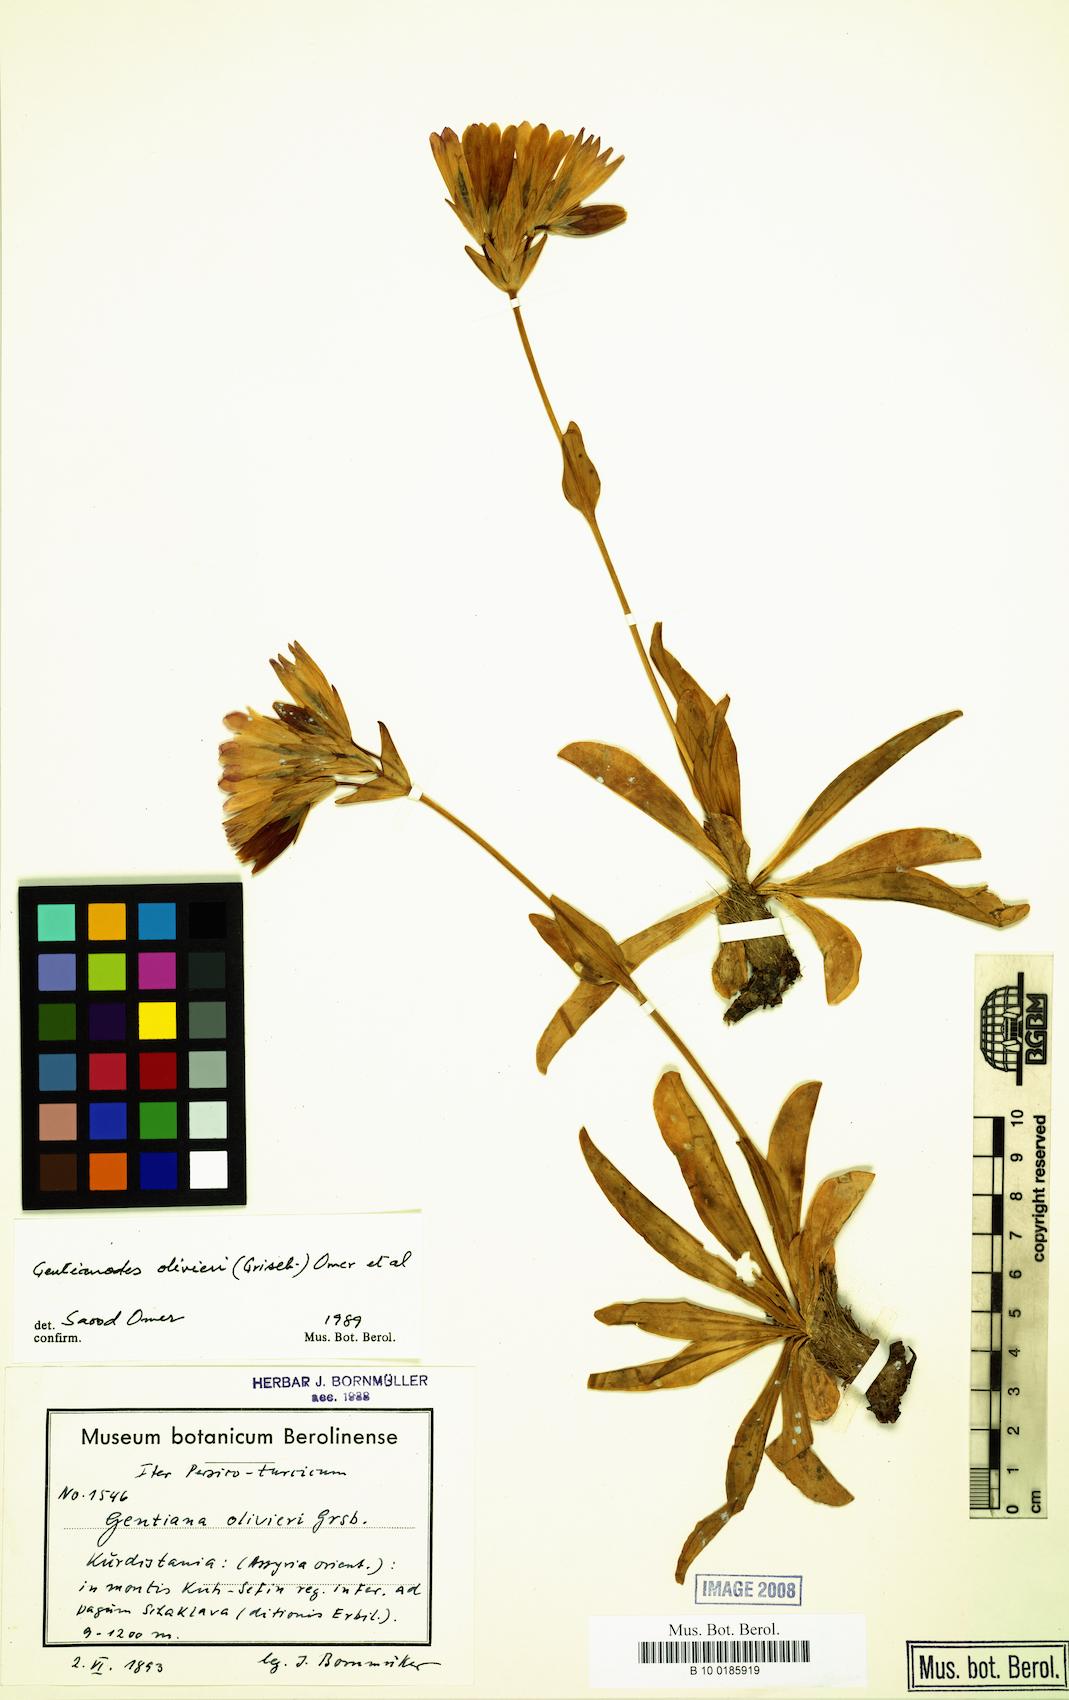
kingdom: Plantae
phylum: Tracheophyta
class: Magnoliopsida
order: Gentianales
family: Gentianaceae
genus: Gentiana
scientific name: Gentiana olivieri
